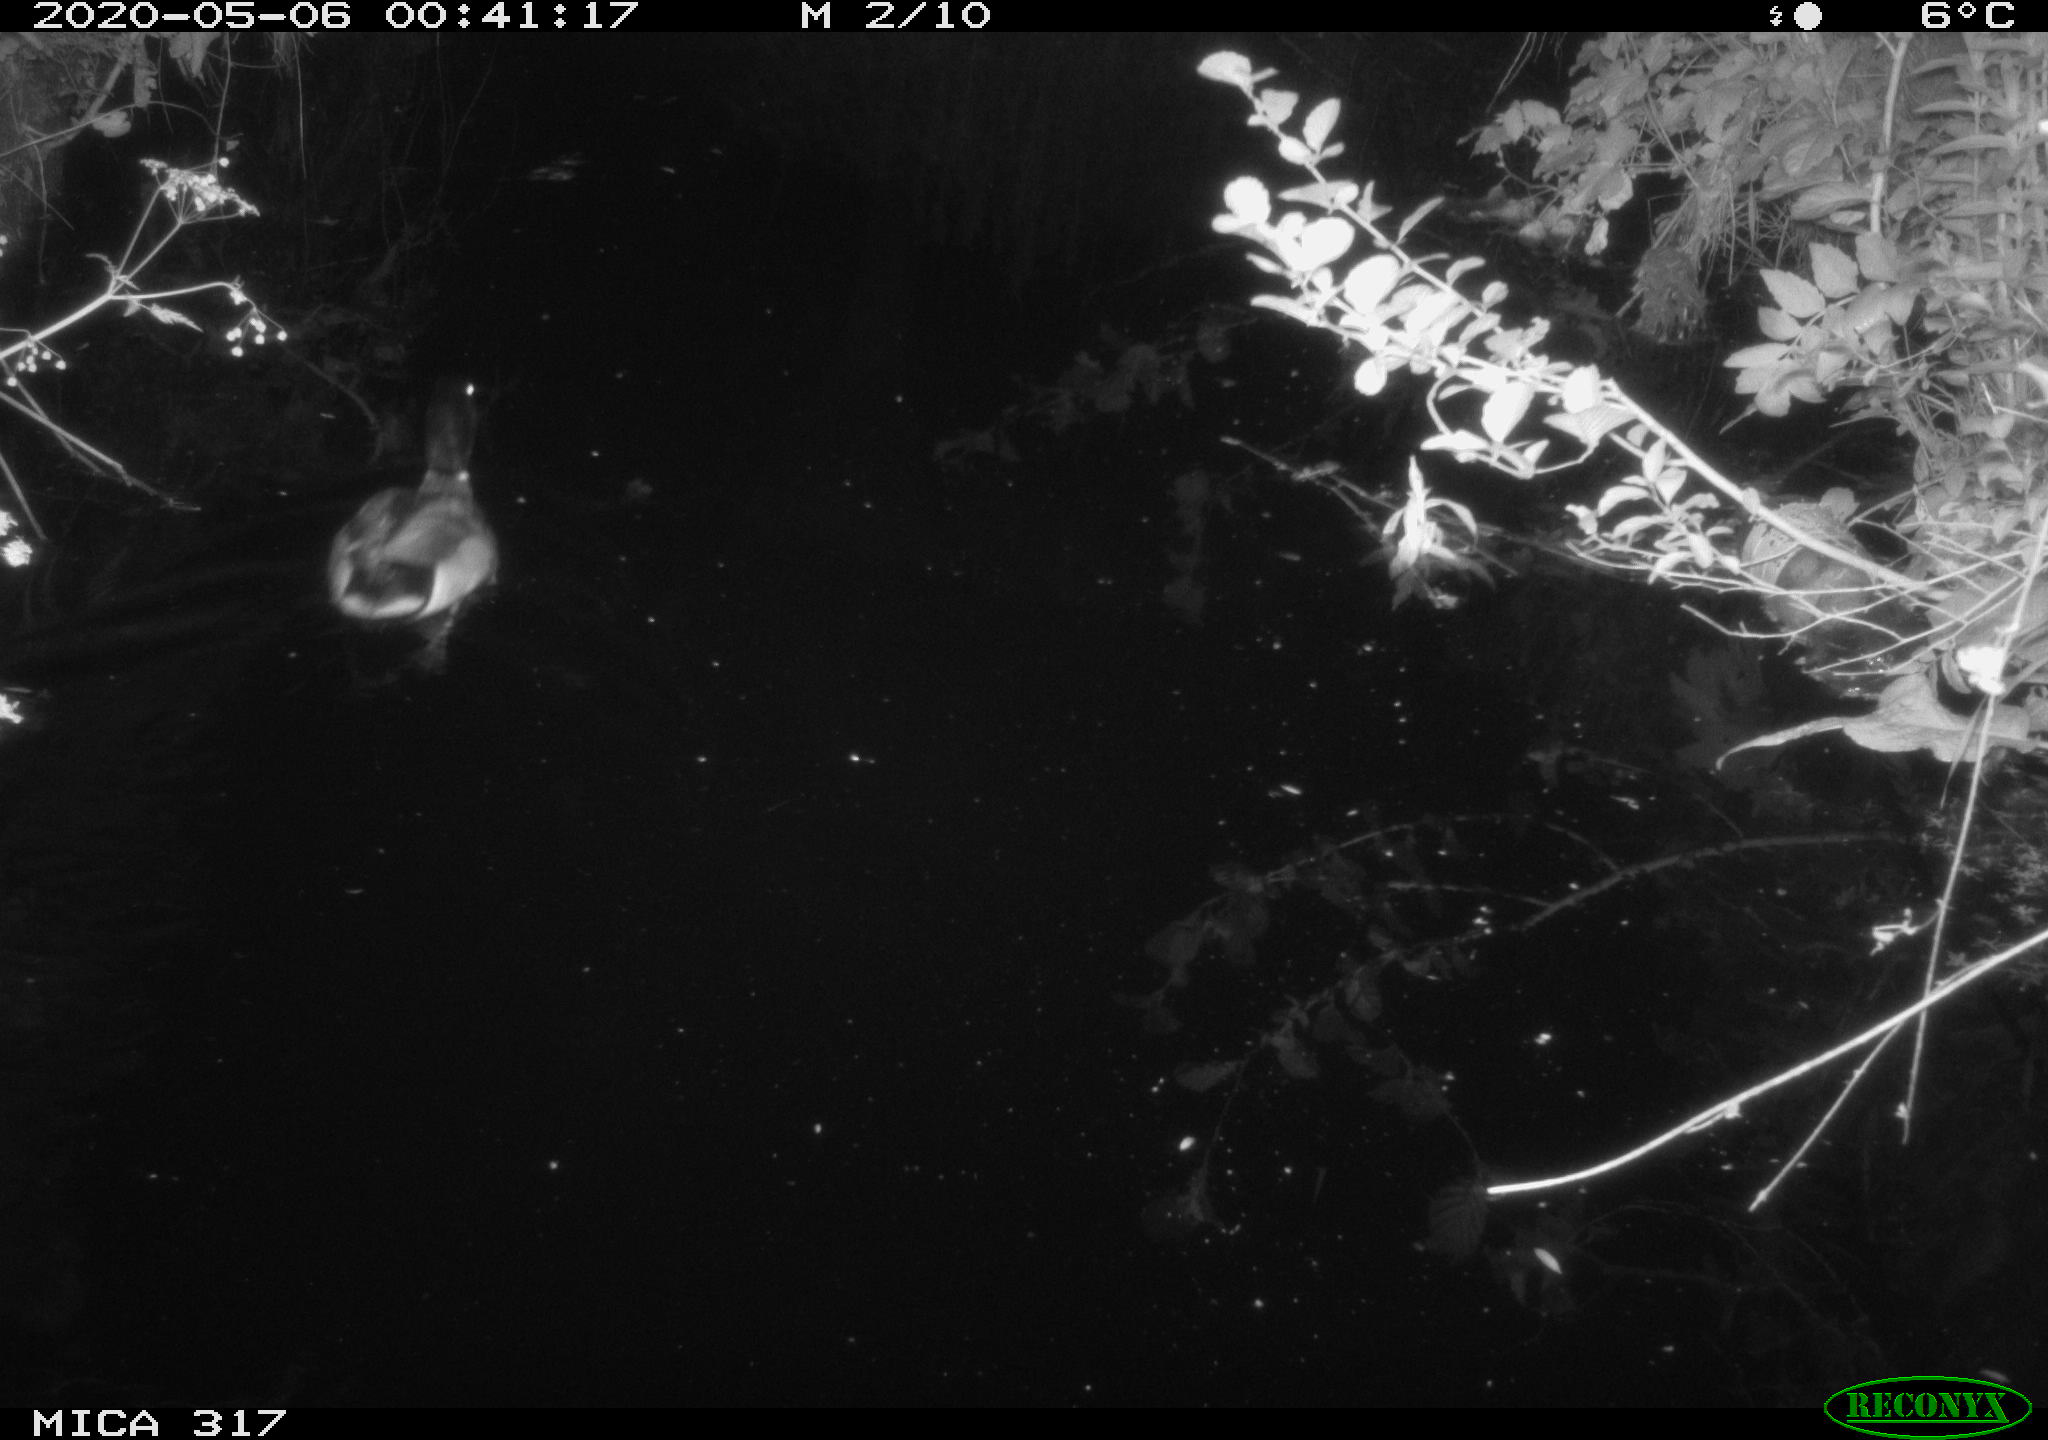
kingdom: Animalia
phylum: Chordata
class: Aves
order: Anseriformes
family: Anatidae
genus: Anas
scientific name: Anas platyrhynchos
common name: Mallard
